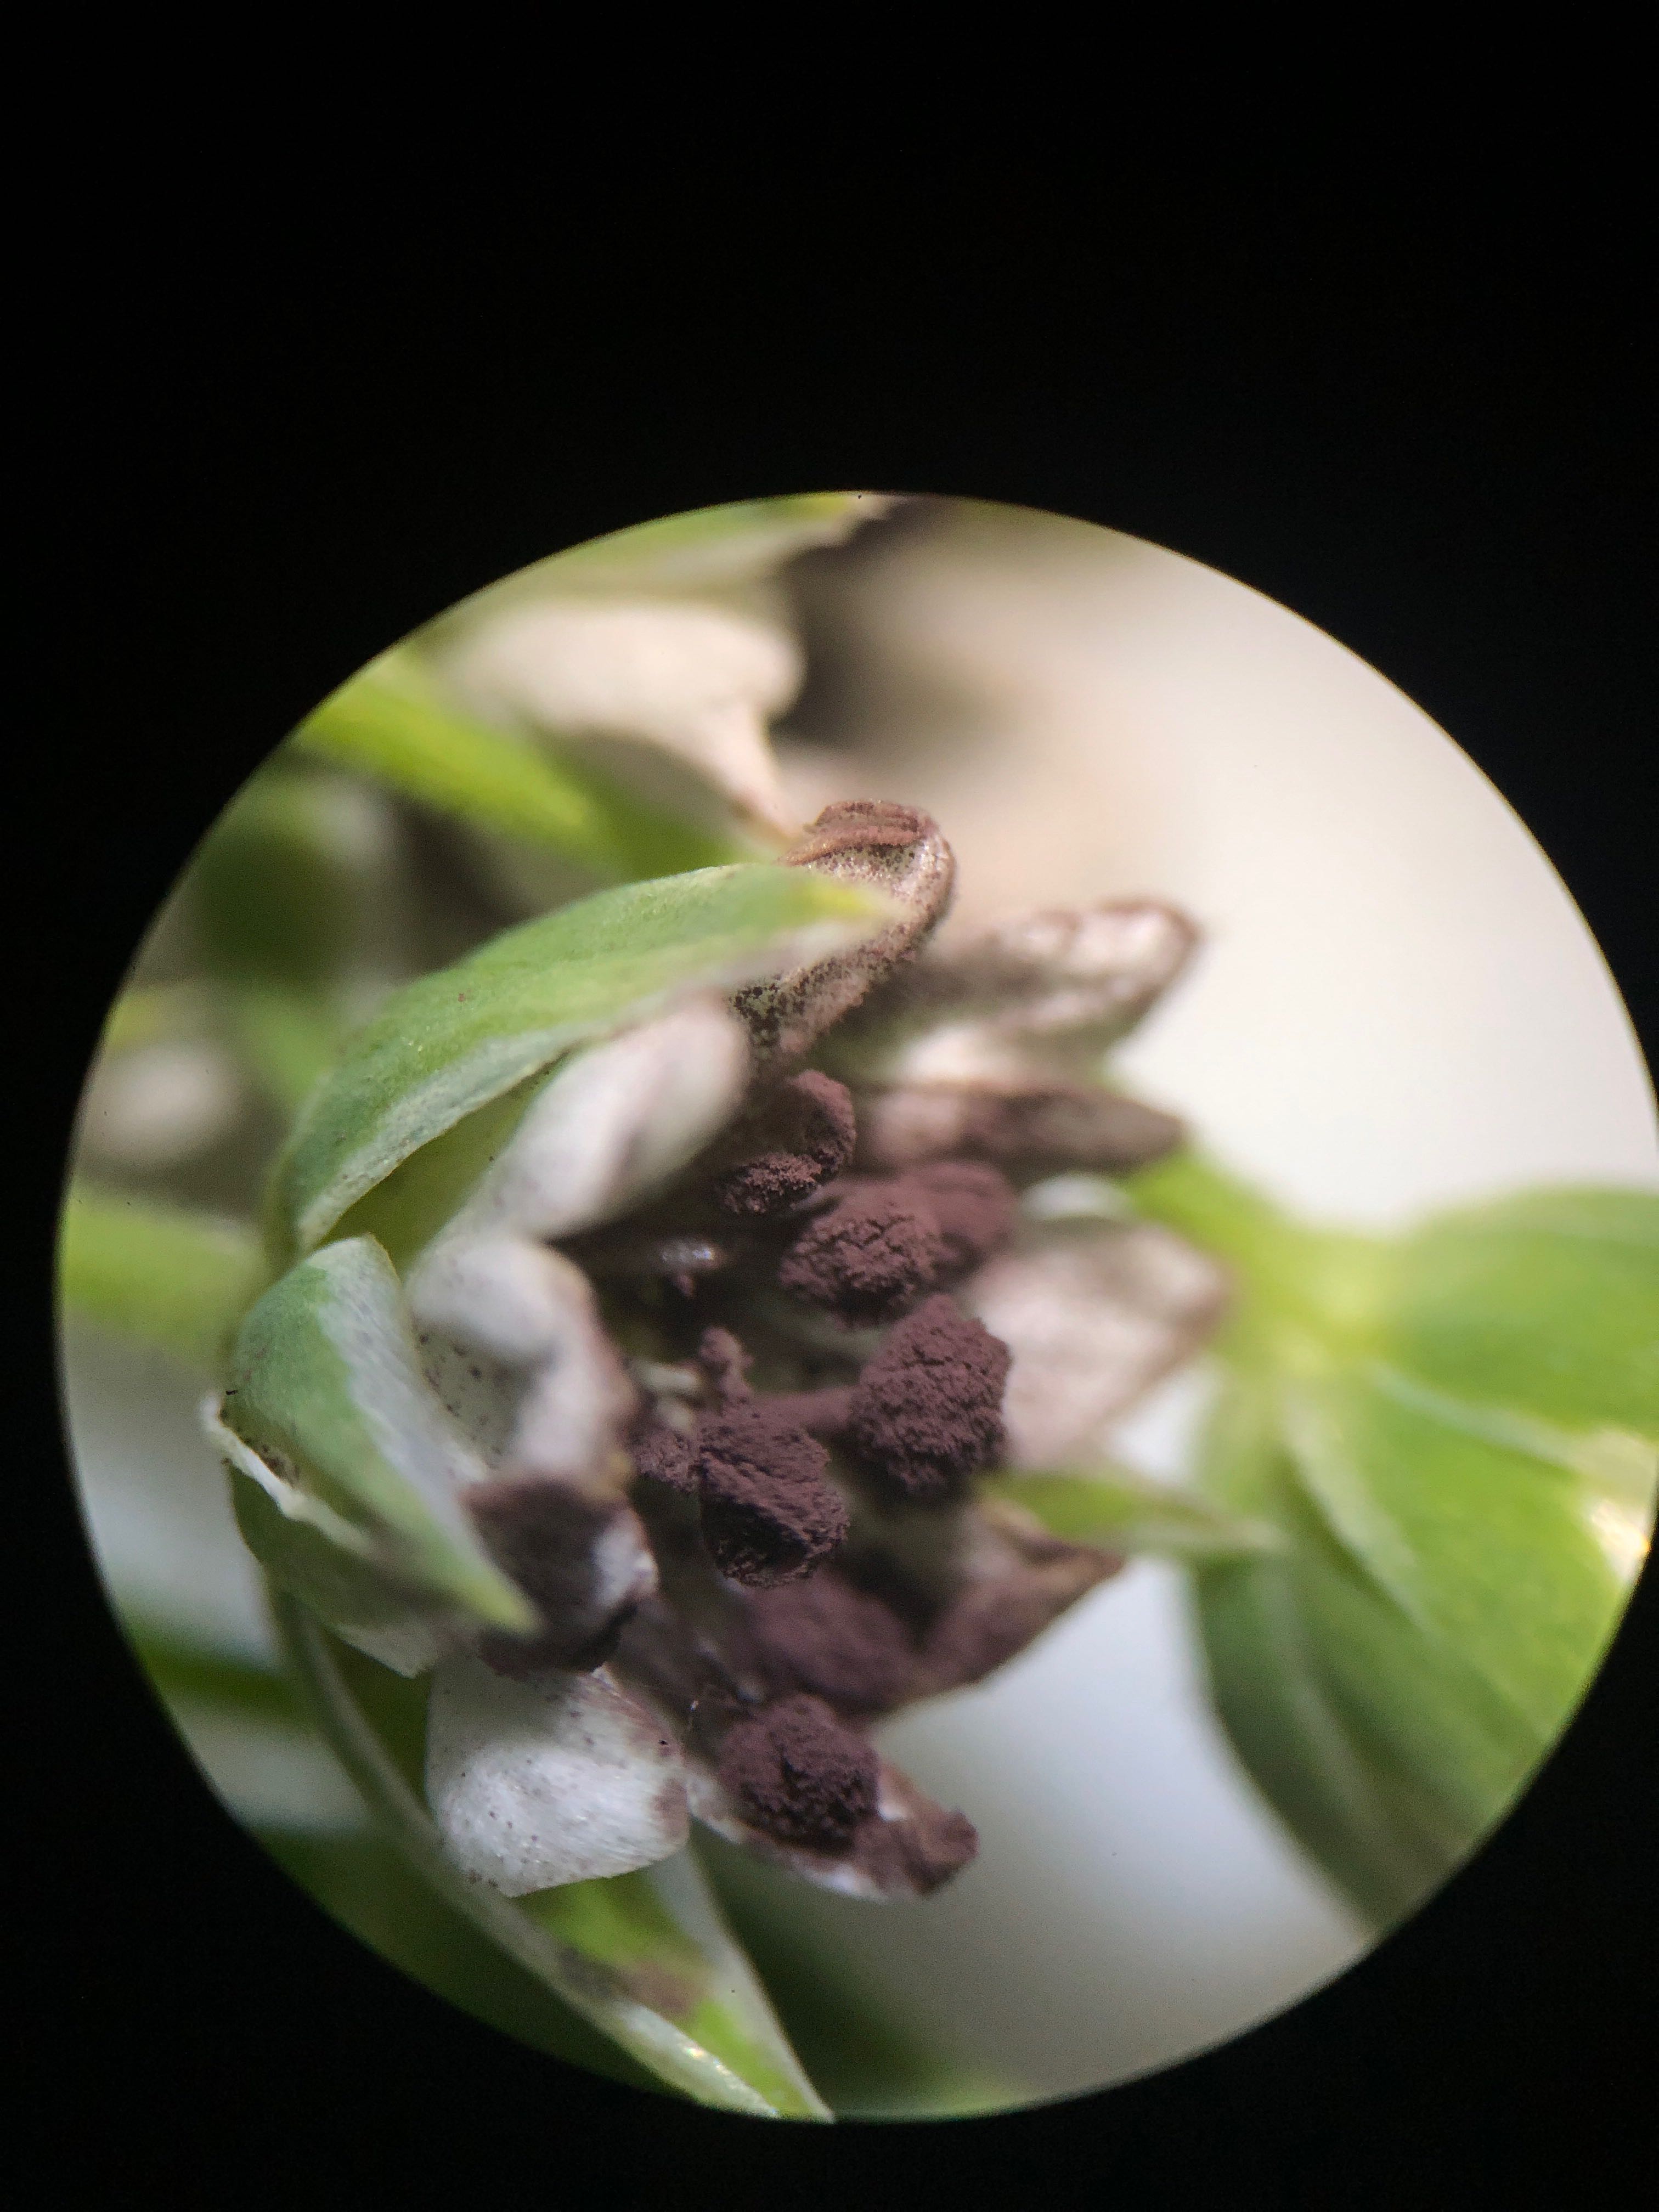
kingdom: Fungi
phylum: Basidiomycota
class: Microbotryomycetes
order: Microbotryales
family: Microbotryaceae
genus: Microbotryum
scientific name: Microbotryum stellariae
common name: fladstjerne-støvbladrust
